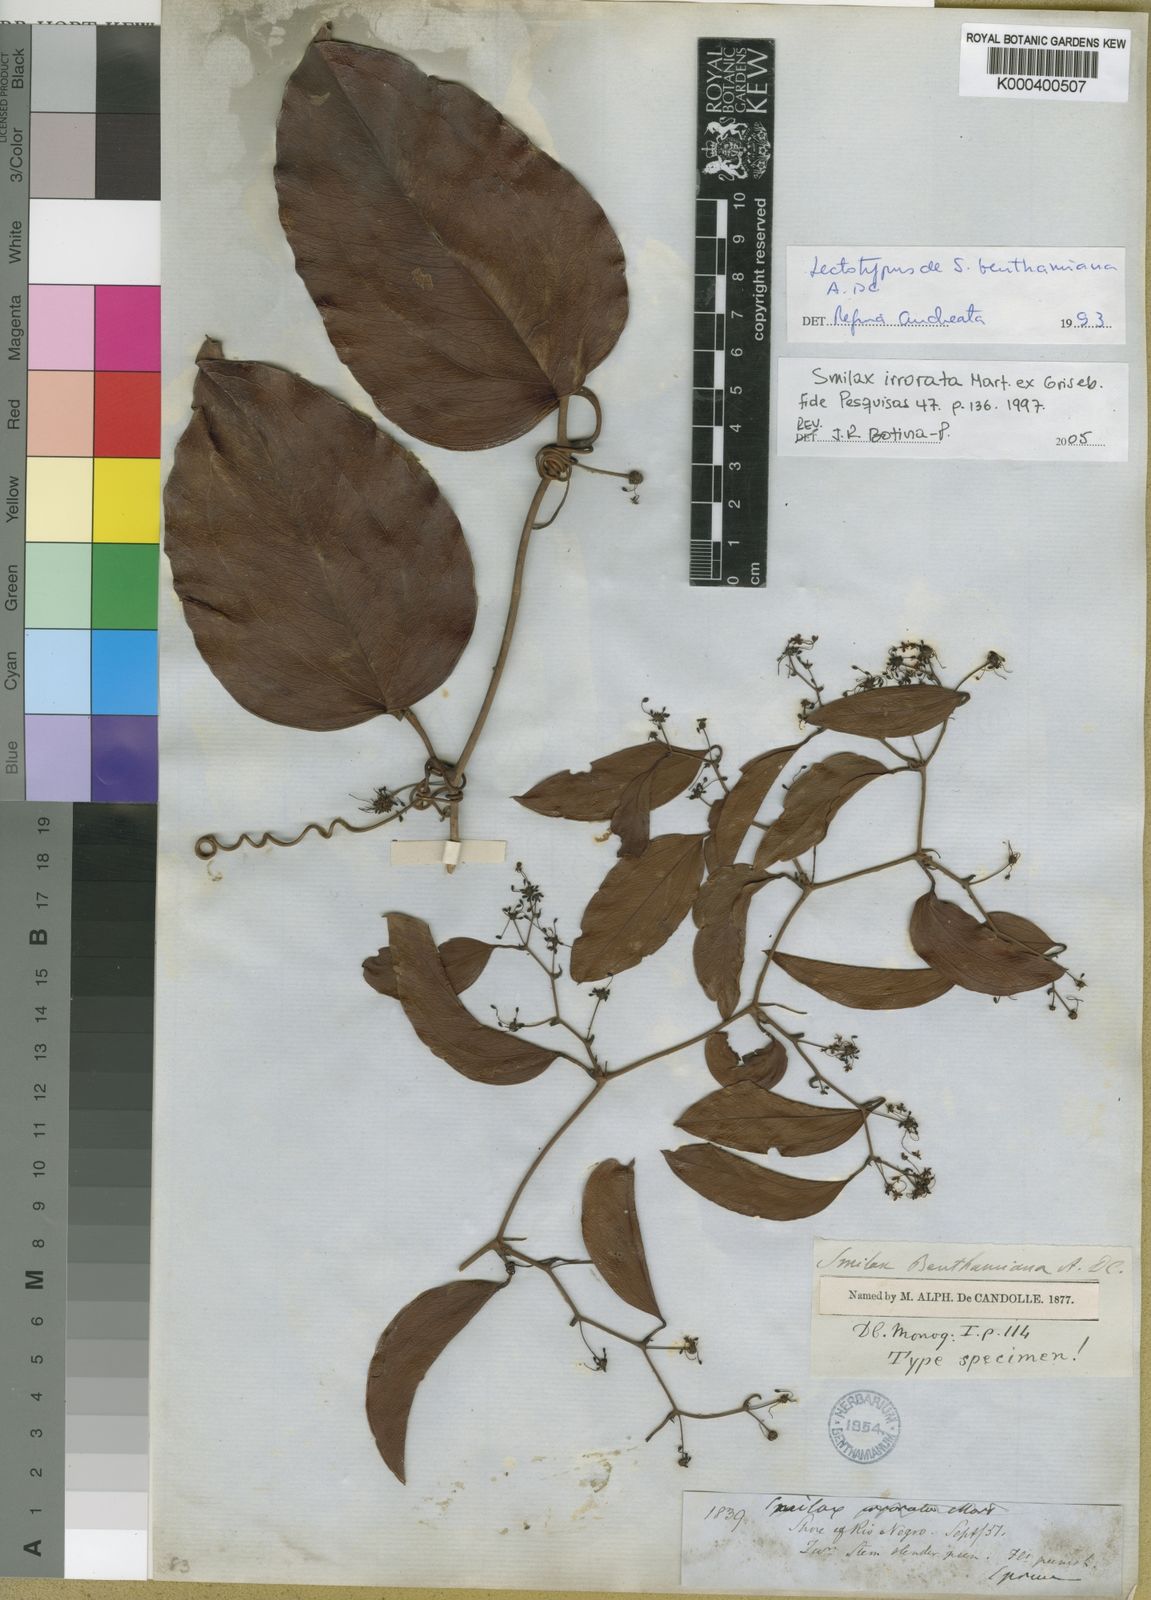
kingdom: Plantae
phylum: Tracheophyta
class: Liliopsida
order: Liliales
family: Smilacaceae
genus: Smilax
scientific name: Smilax irrorata
